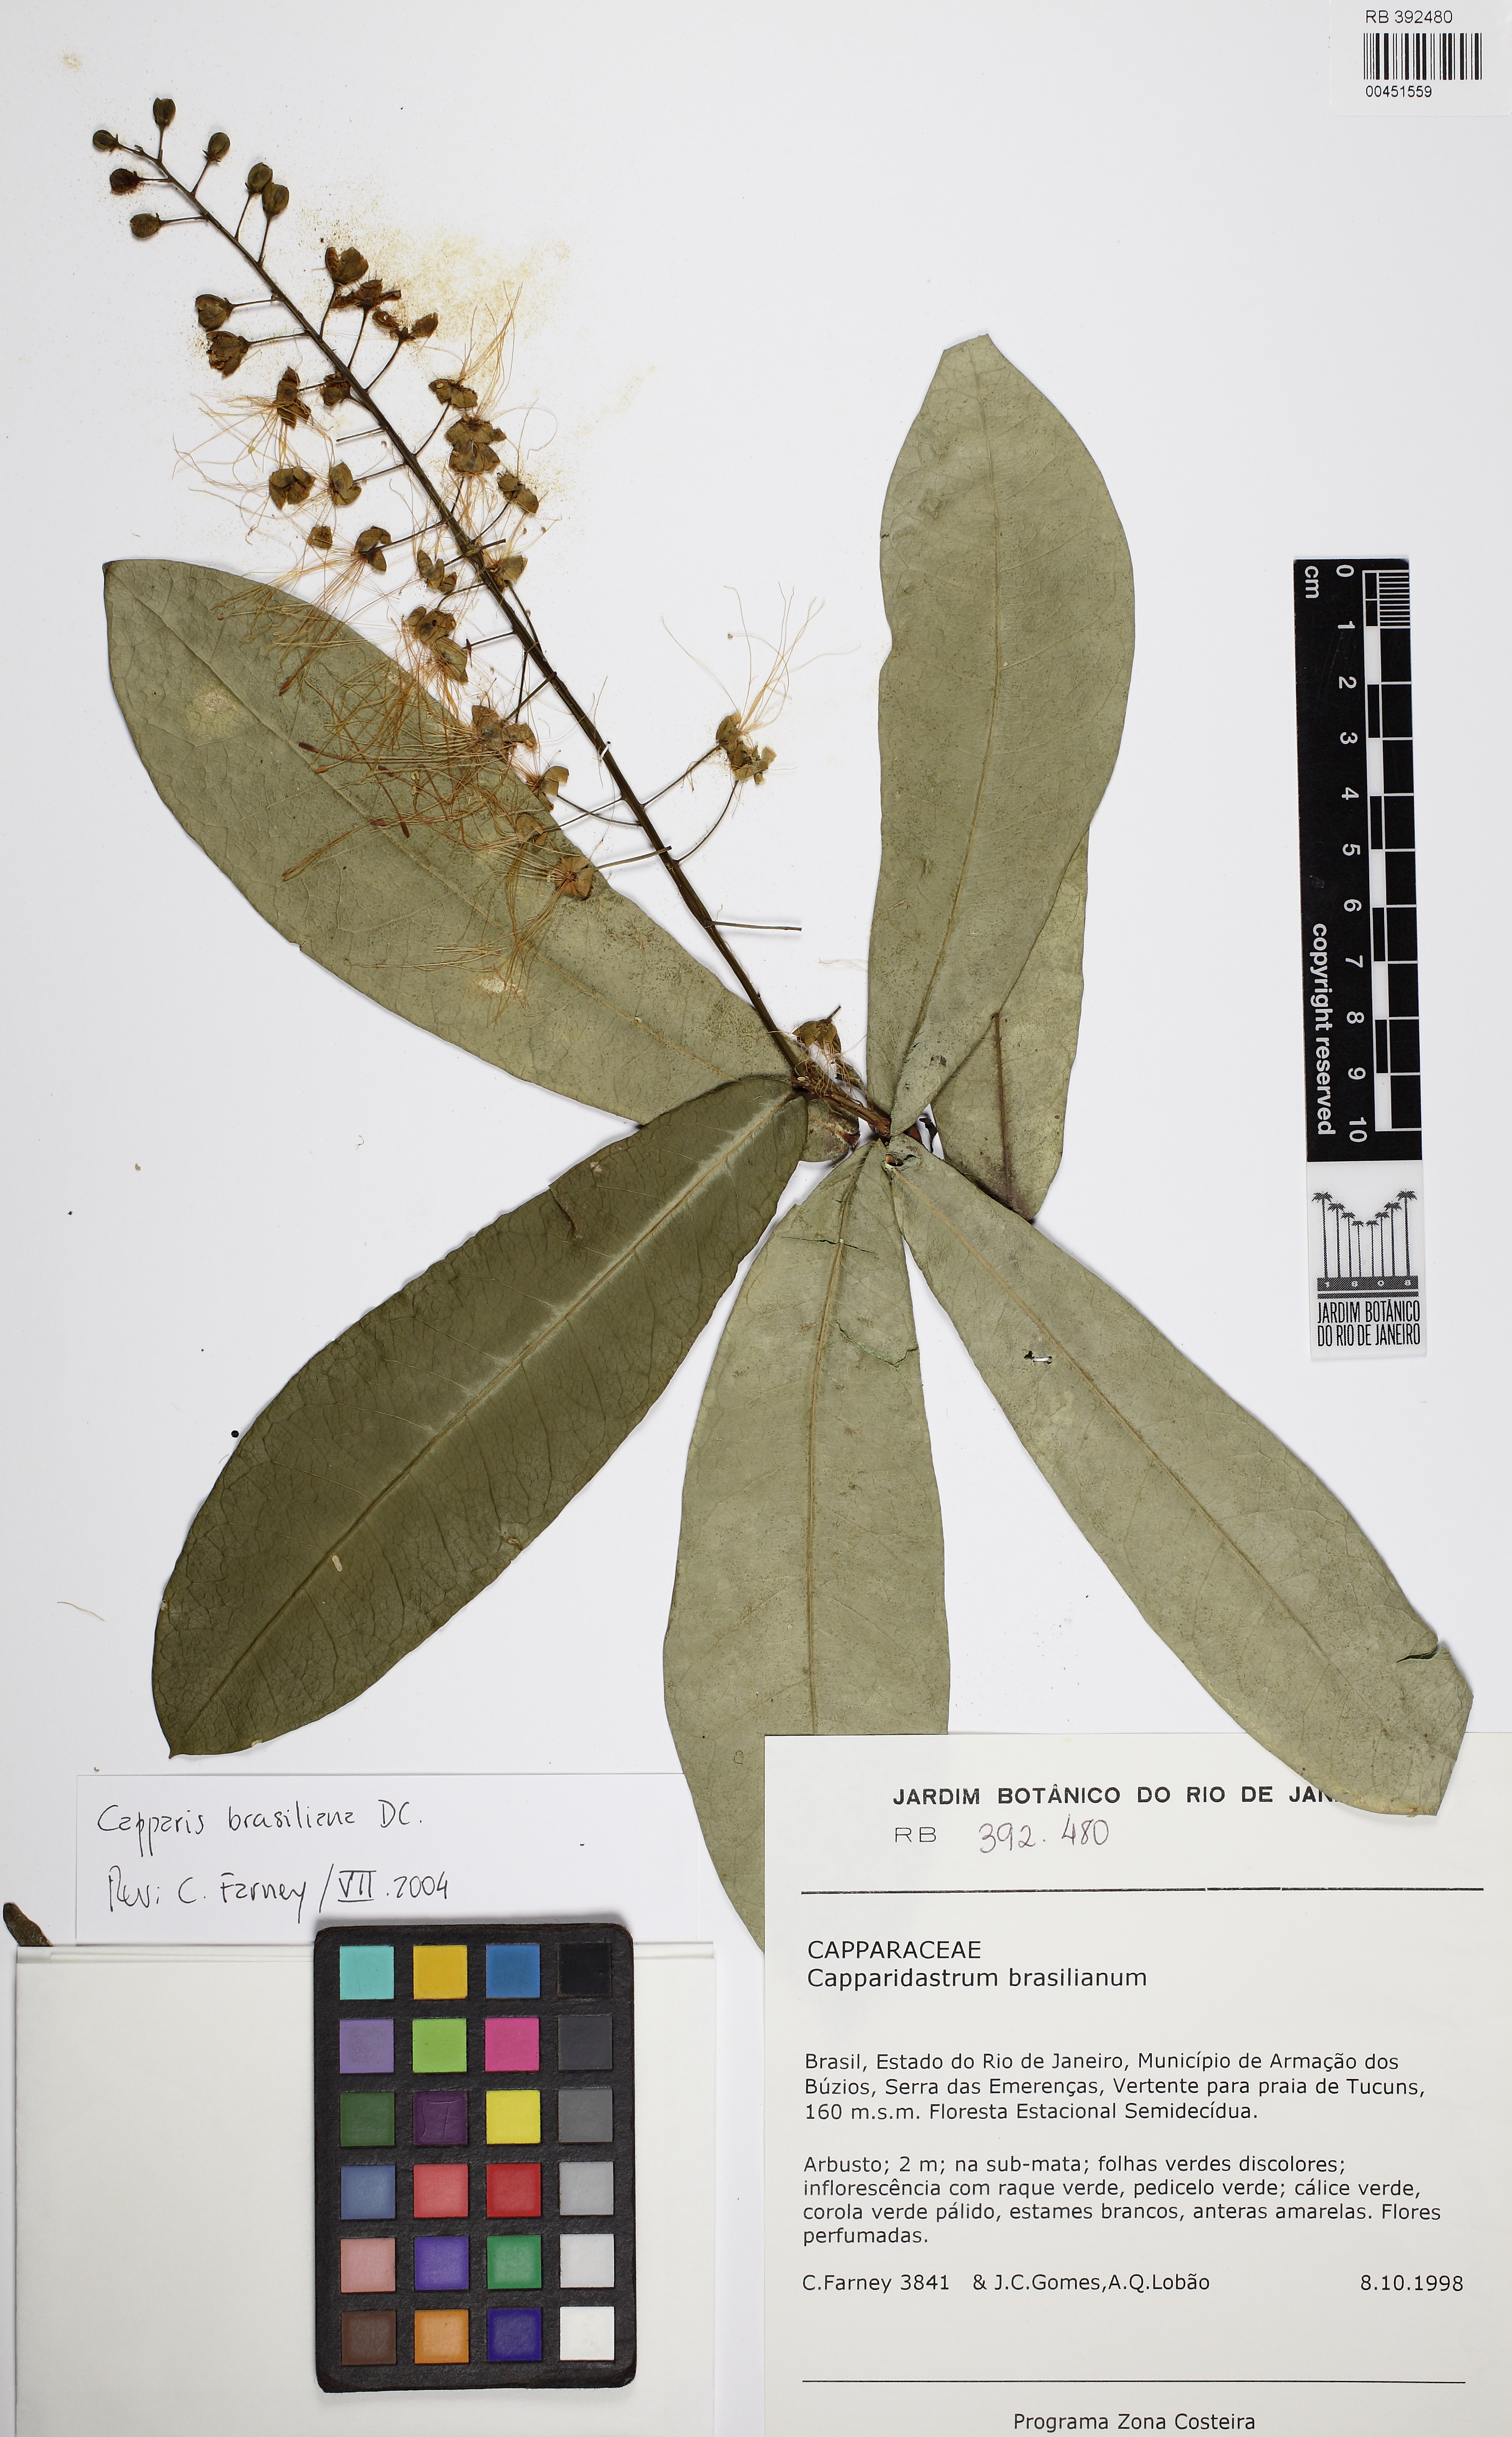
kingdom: Plantae
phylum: Tracheophyta
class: Magnoliopsida
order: Brassicales
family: Capparaceae
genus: Monilicarpa
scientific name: Monilicarpa brasiliana
